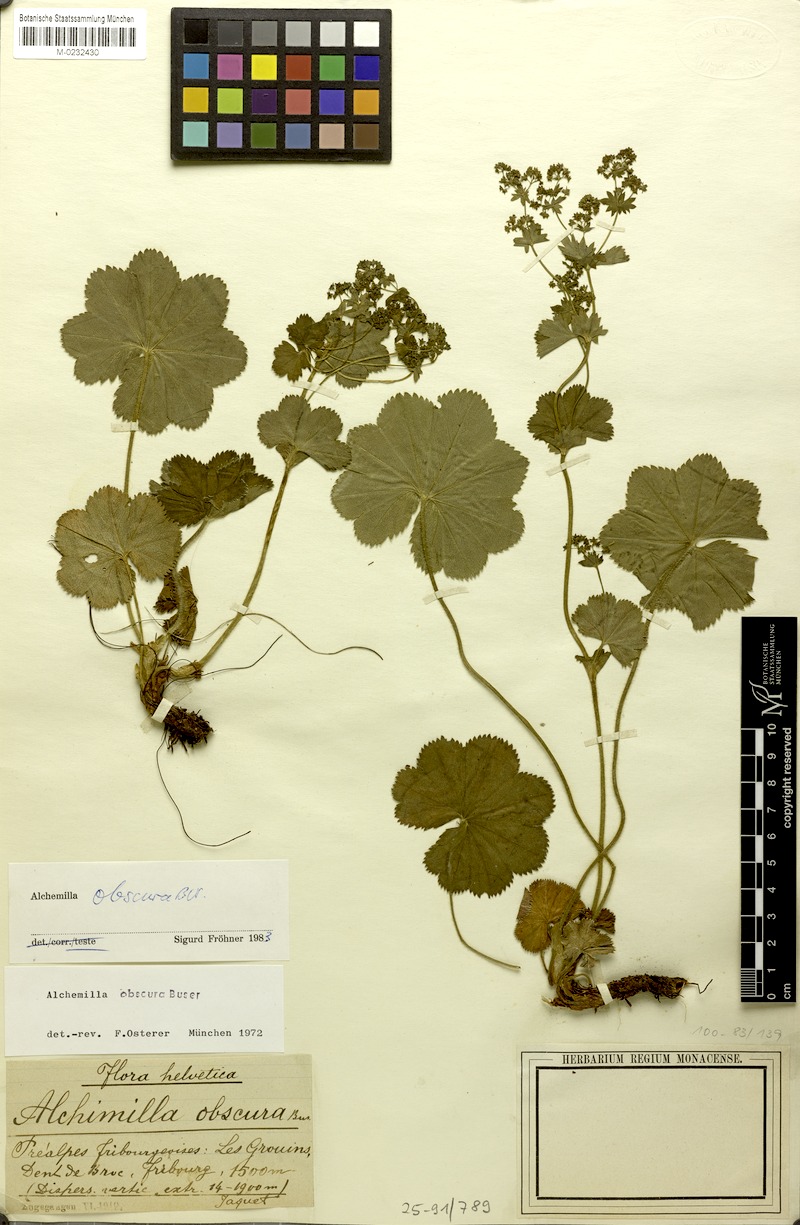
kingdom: Plantae
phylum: Tracheophyta
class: Magnoliopsida
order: Rosales
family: Rosaceae
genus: Alchemilla
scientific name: Alchemilla obscura
